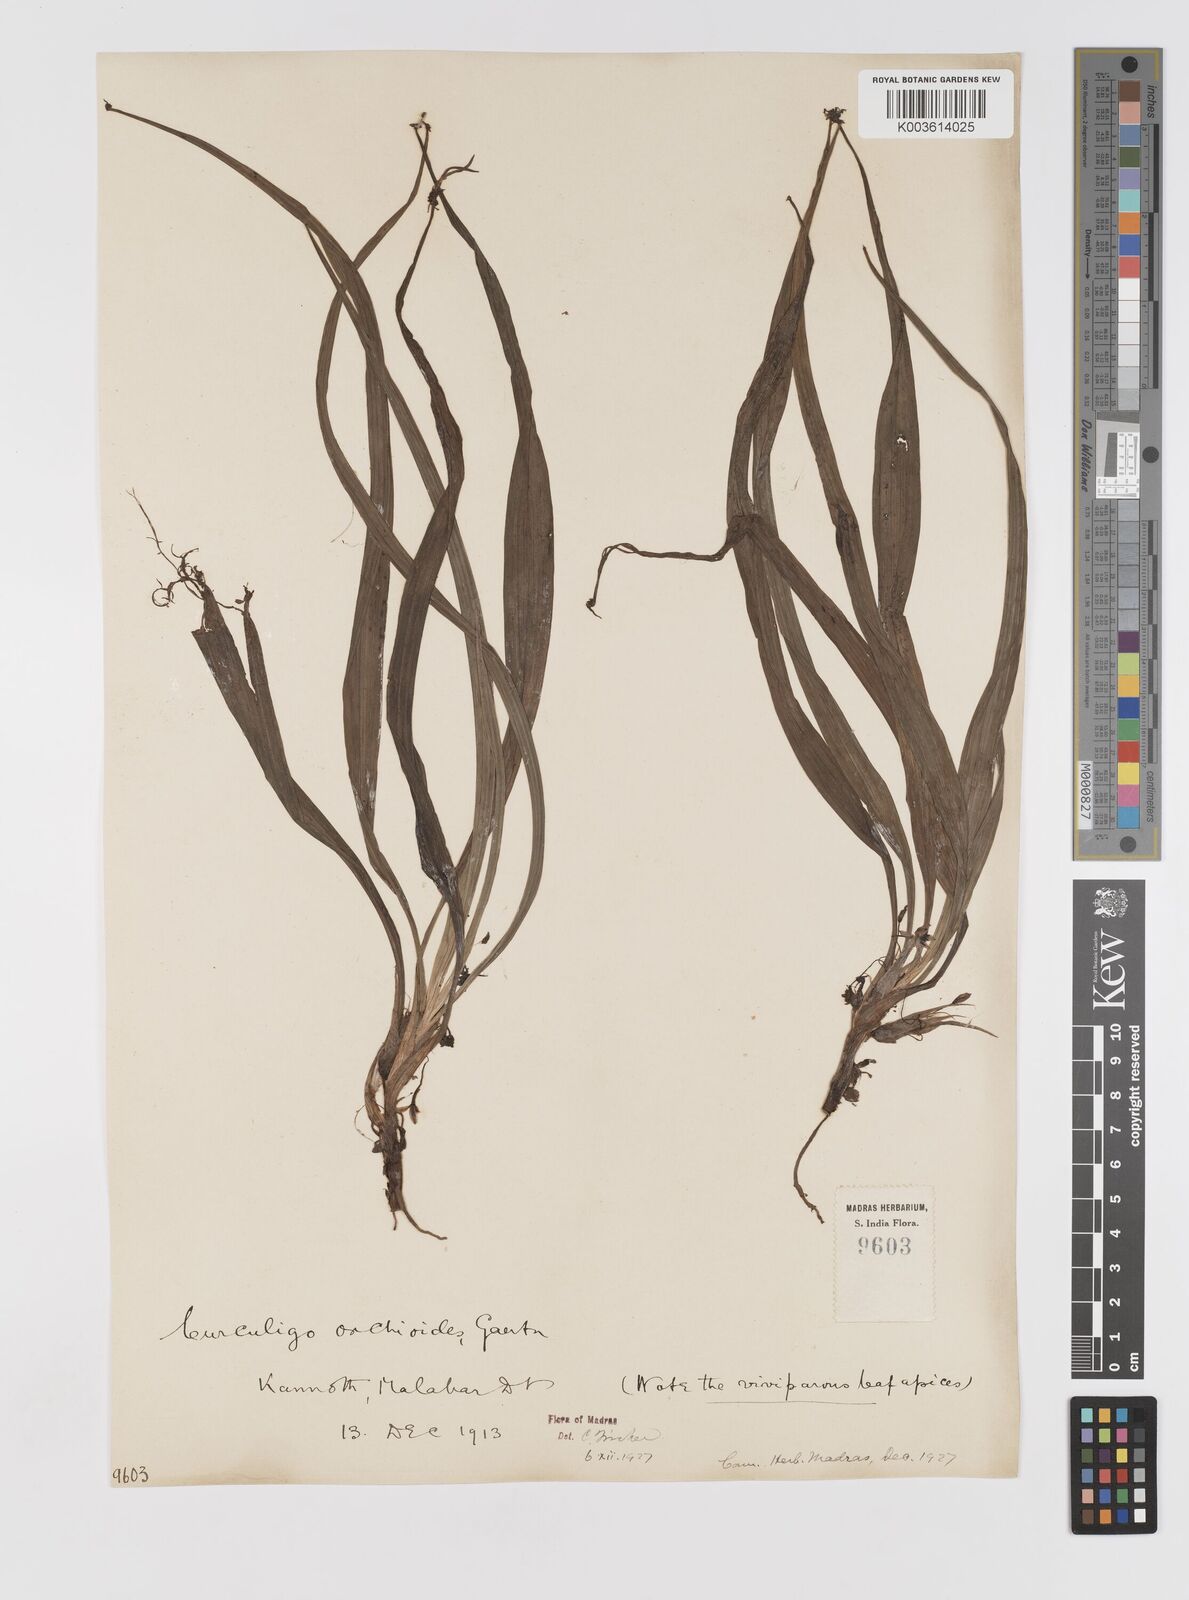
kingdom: Plantae
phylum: Tracheophyta
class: Liliopsida
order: Asparagales
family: Hypoxidaceae
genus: Curculigo
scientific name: Curculigo orchioides
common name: Golden eye-grass
